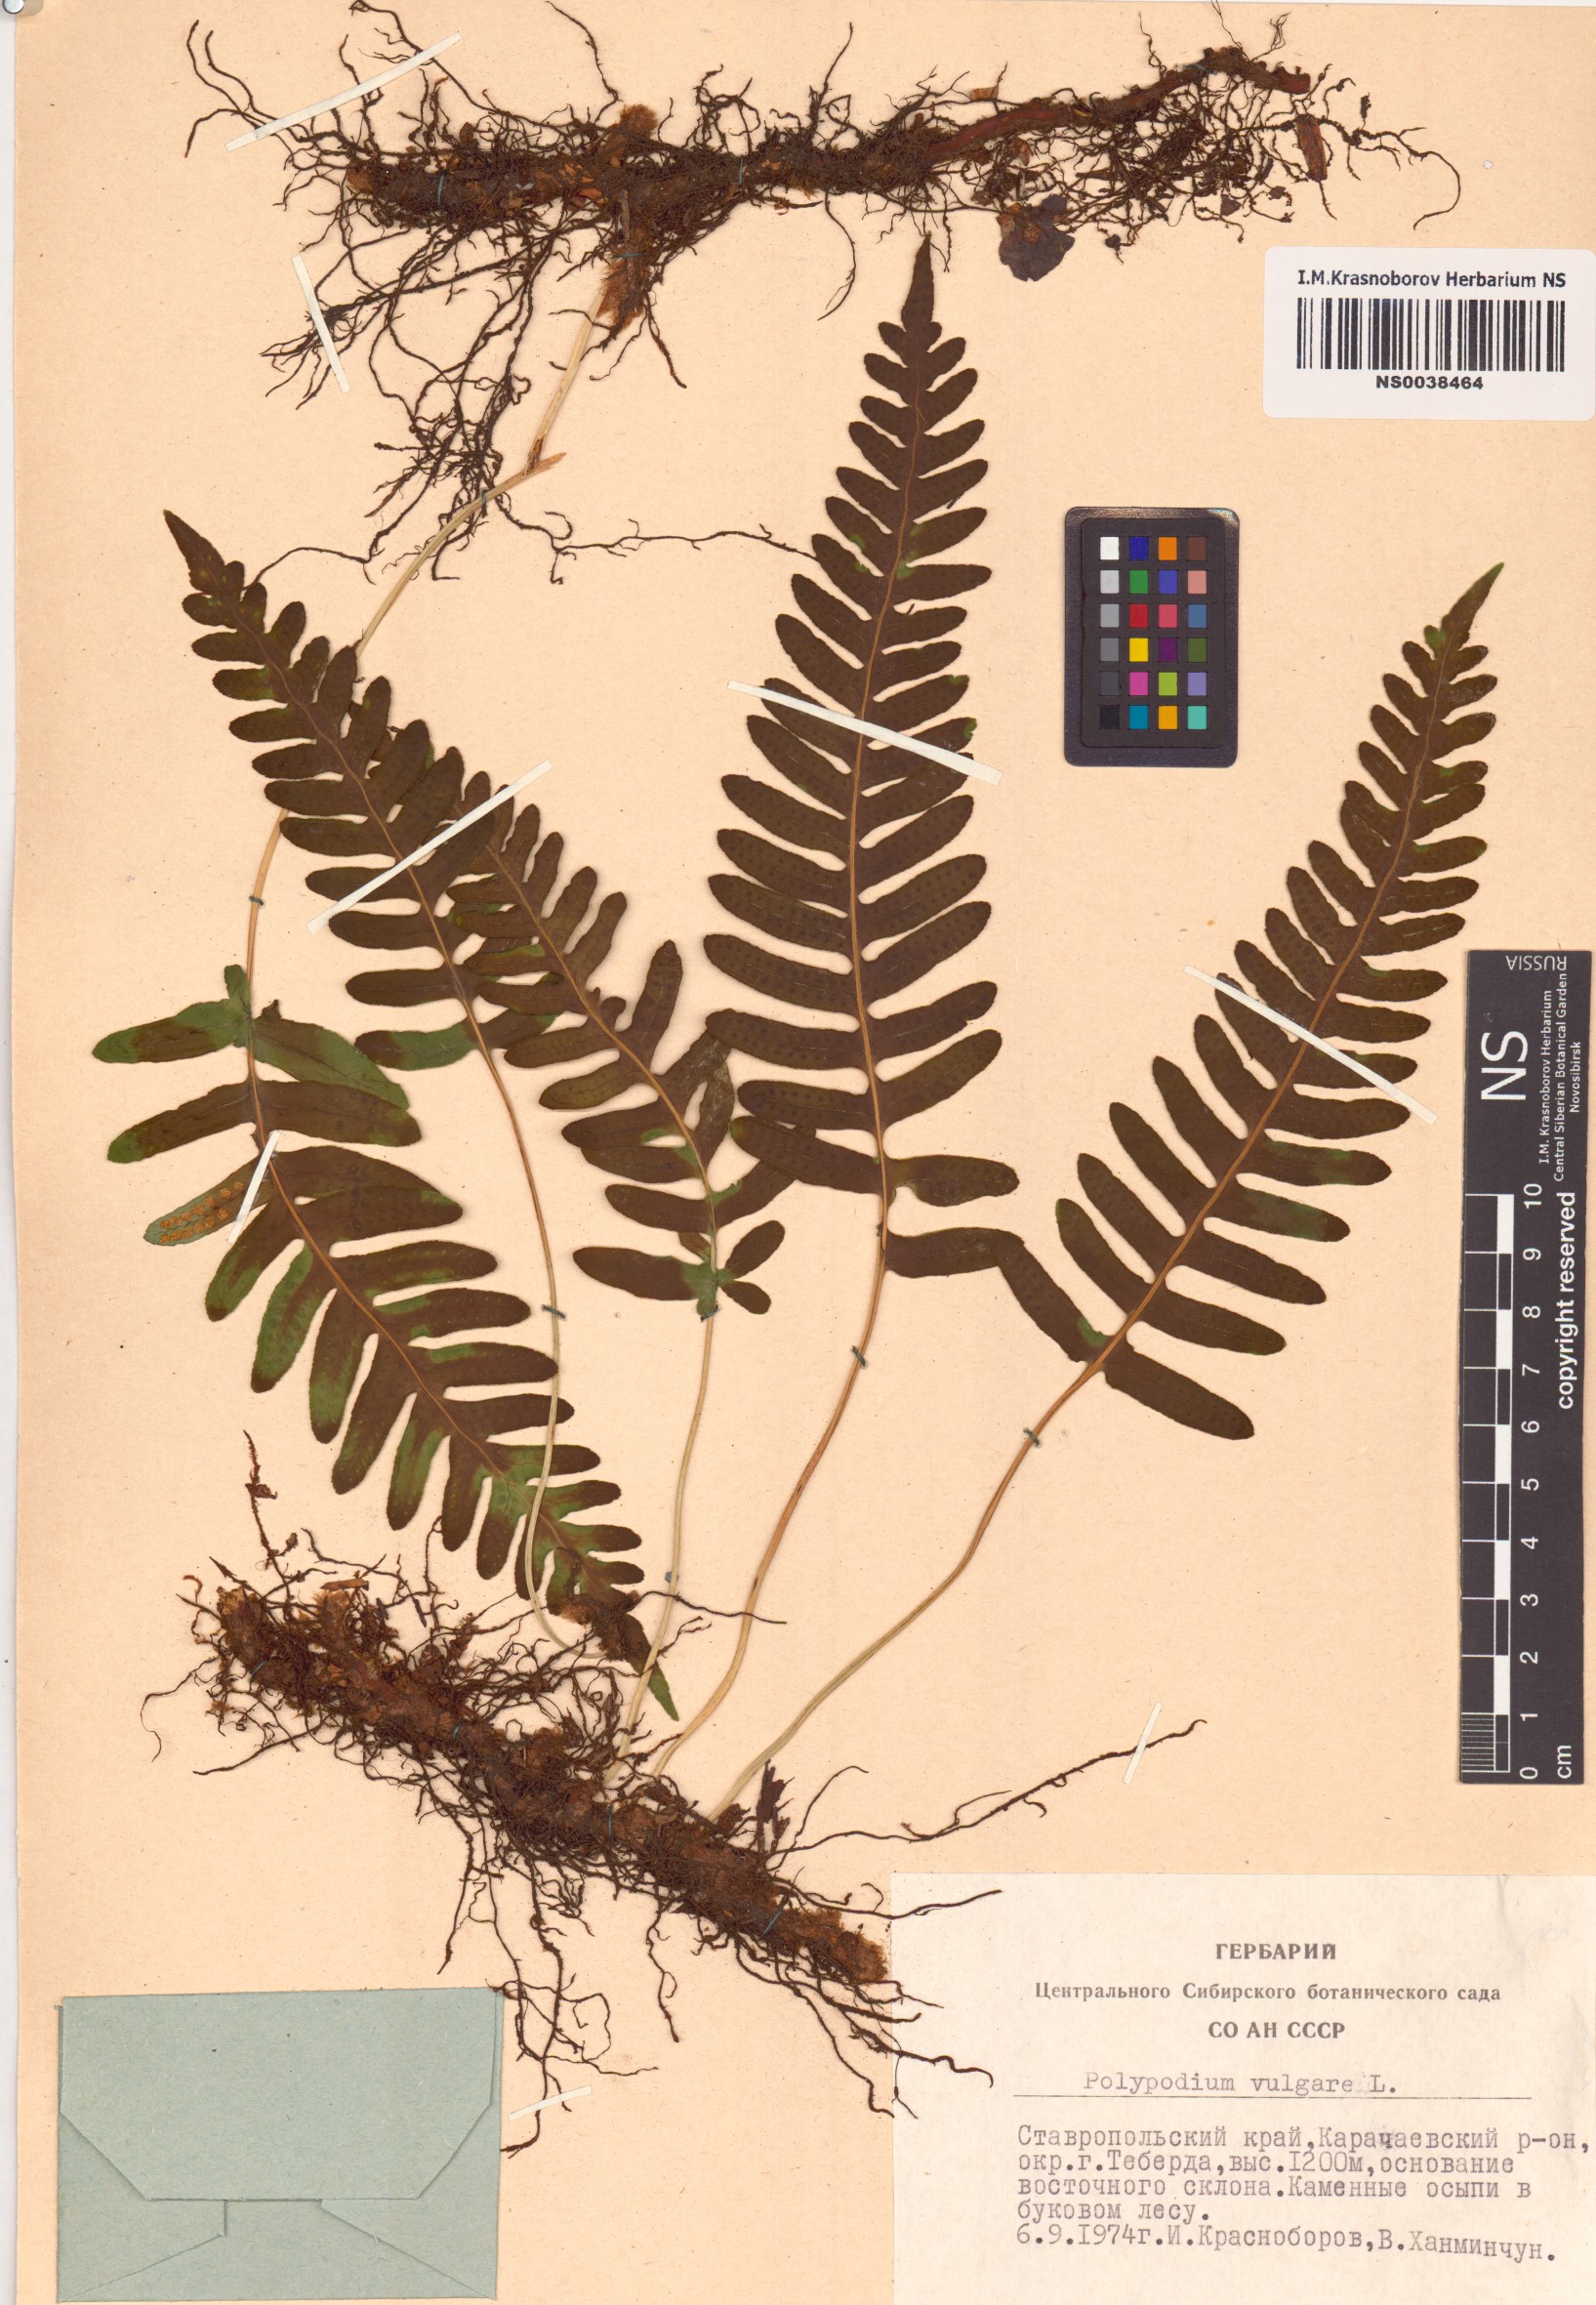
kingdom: Plantae
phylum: Tracheophyta
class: Polypodiopsida
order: Polypodiales
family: Polypodiaceae
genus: Polypodium
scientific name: Polypodium vulgare
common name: Common polypody
